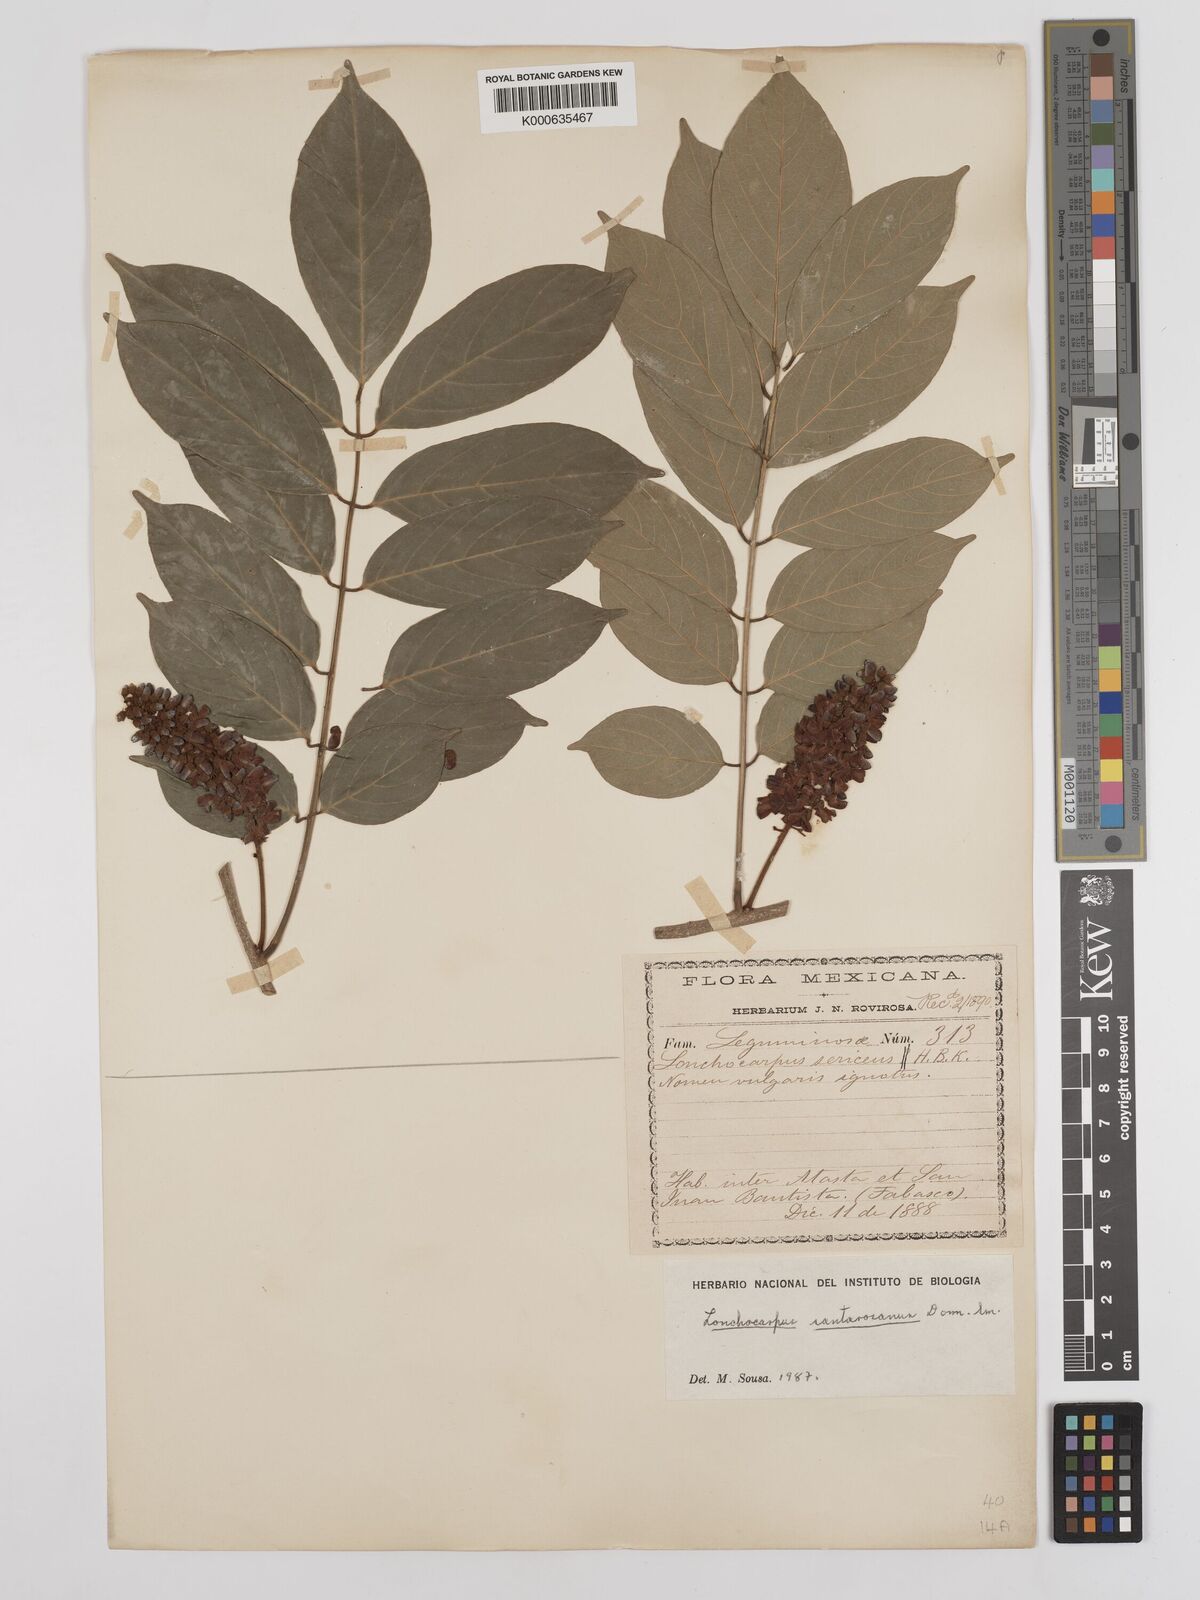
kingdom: Plantae
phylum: Tracheophyta
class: Magnoliopsida
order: Fabales
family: Fabaceae
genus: Lonchocarpus
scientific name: Lonchocarpus santarosanus
